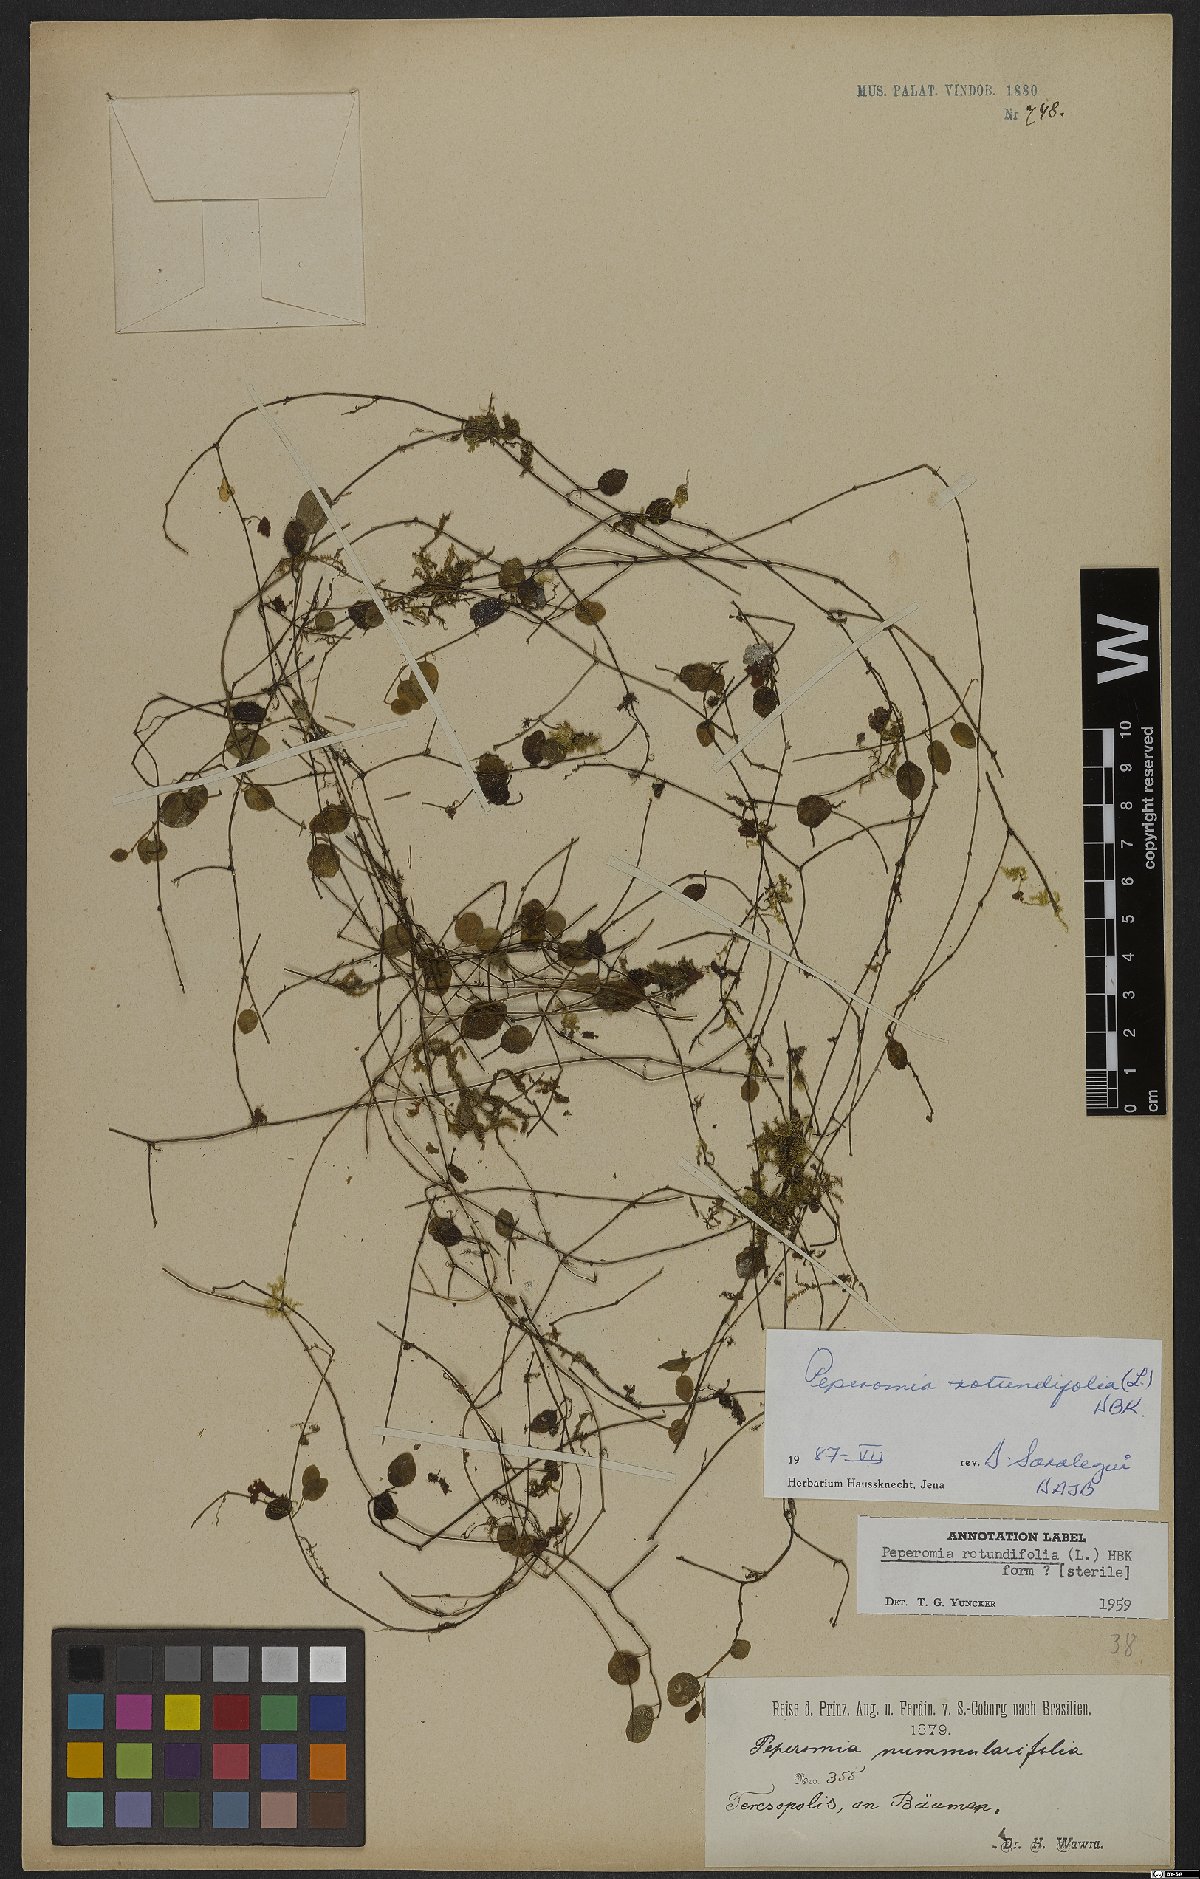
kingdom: Plantae
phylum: Tracheophyta
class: Magnoliopsida
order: Piperales
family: Piperaceae
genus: Peperomia
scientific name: Peperomia rotundifolia
